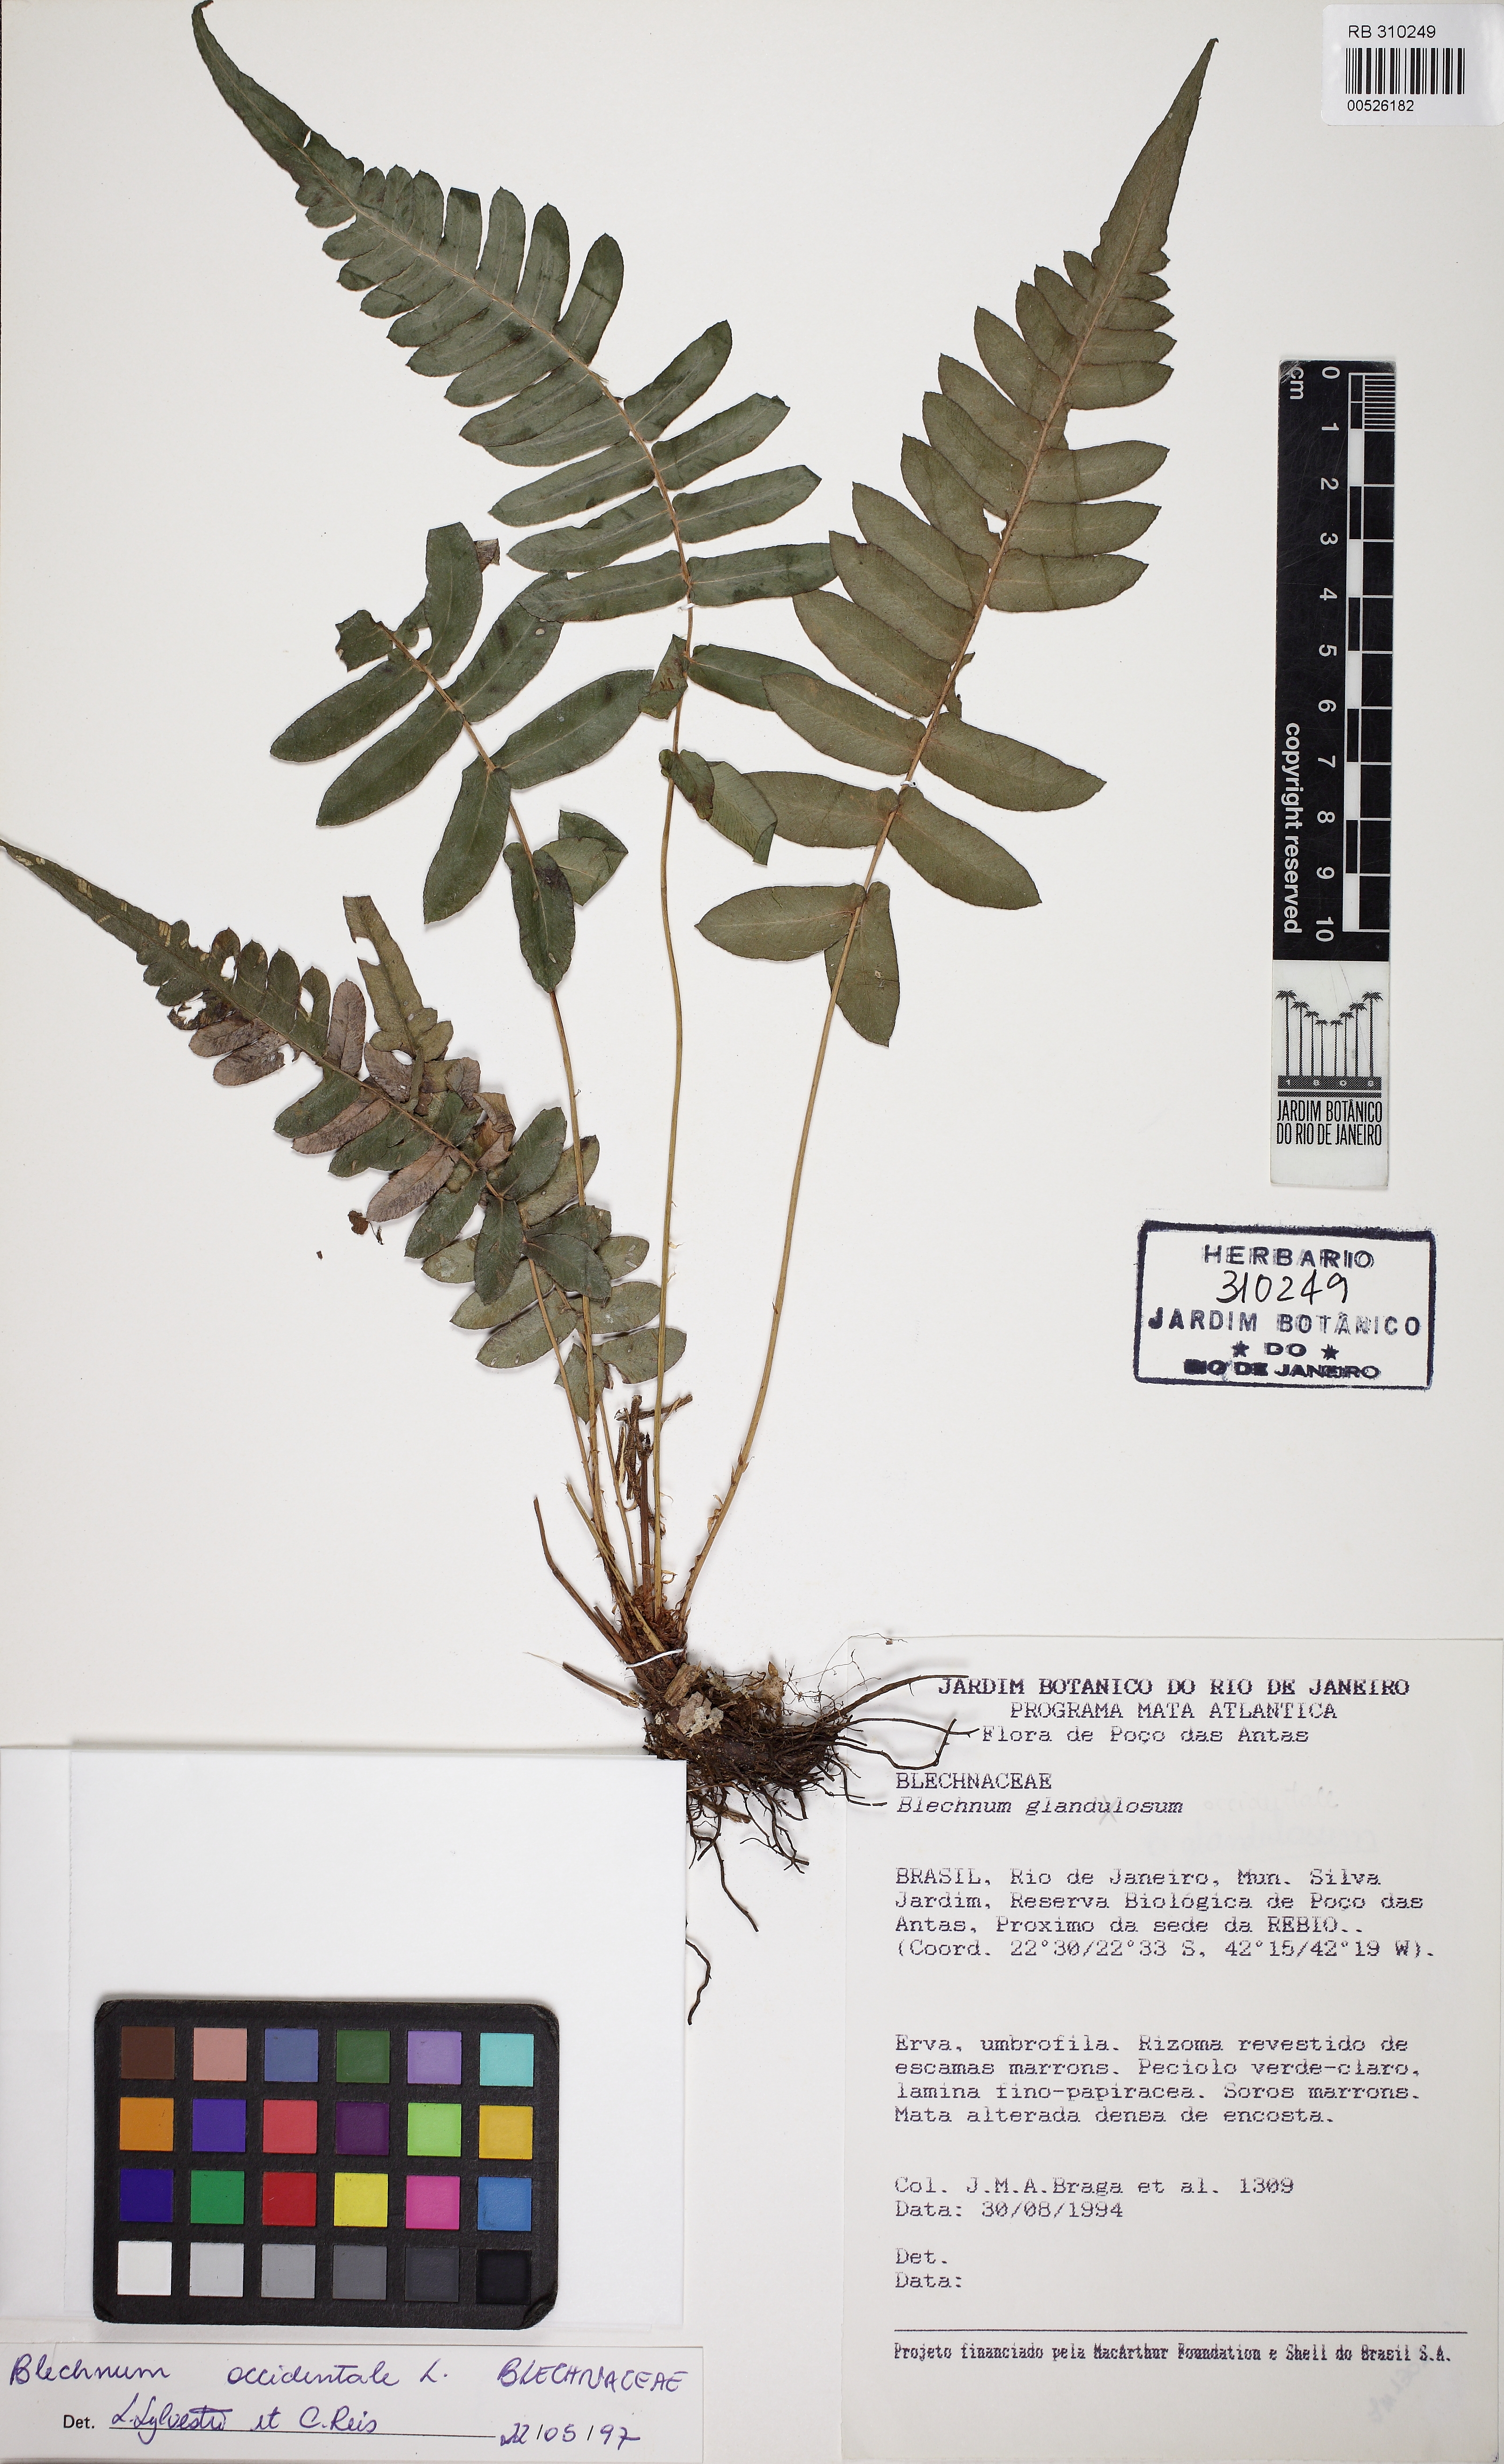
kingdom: Plantae
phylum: Tracheophyta
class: Polypodiopsida
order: Polypodiales
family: Blechnaceae
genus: Blechnum
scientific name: Blechnum occidentale
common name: Hammock fern
